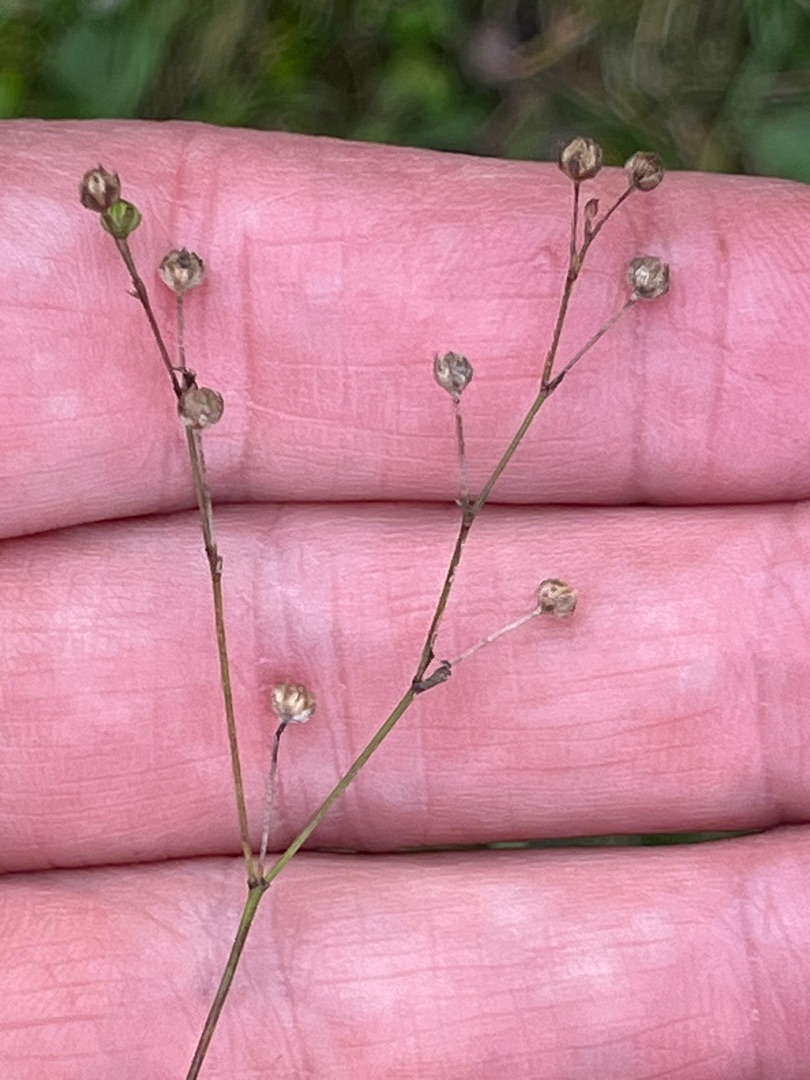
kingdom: Plantae
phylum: Tracheophyta
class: Magnoliopsida
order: Malpighiales
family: Linaceae
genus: Linum
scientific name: Linum catharticum
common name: Vild hør
